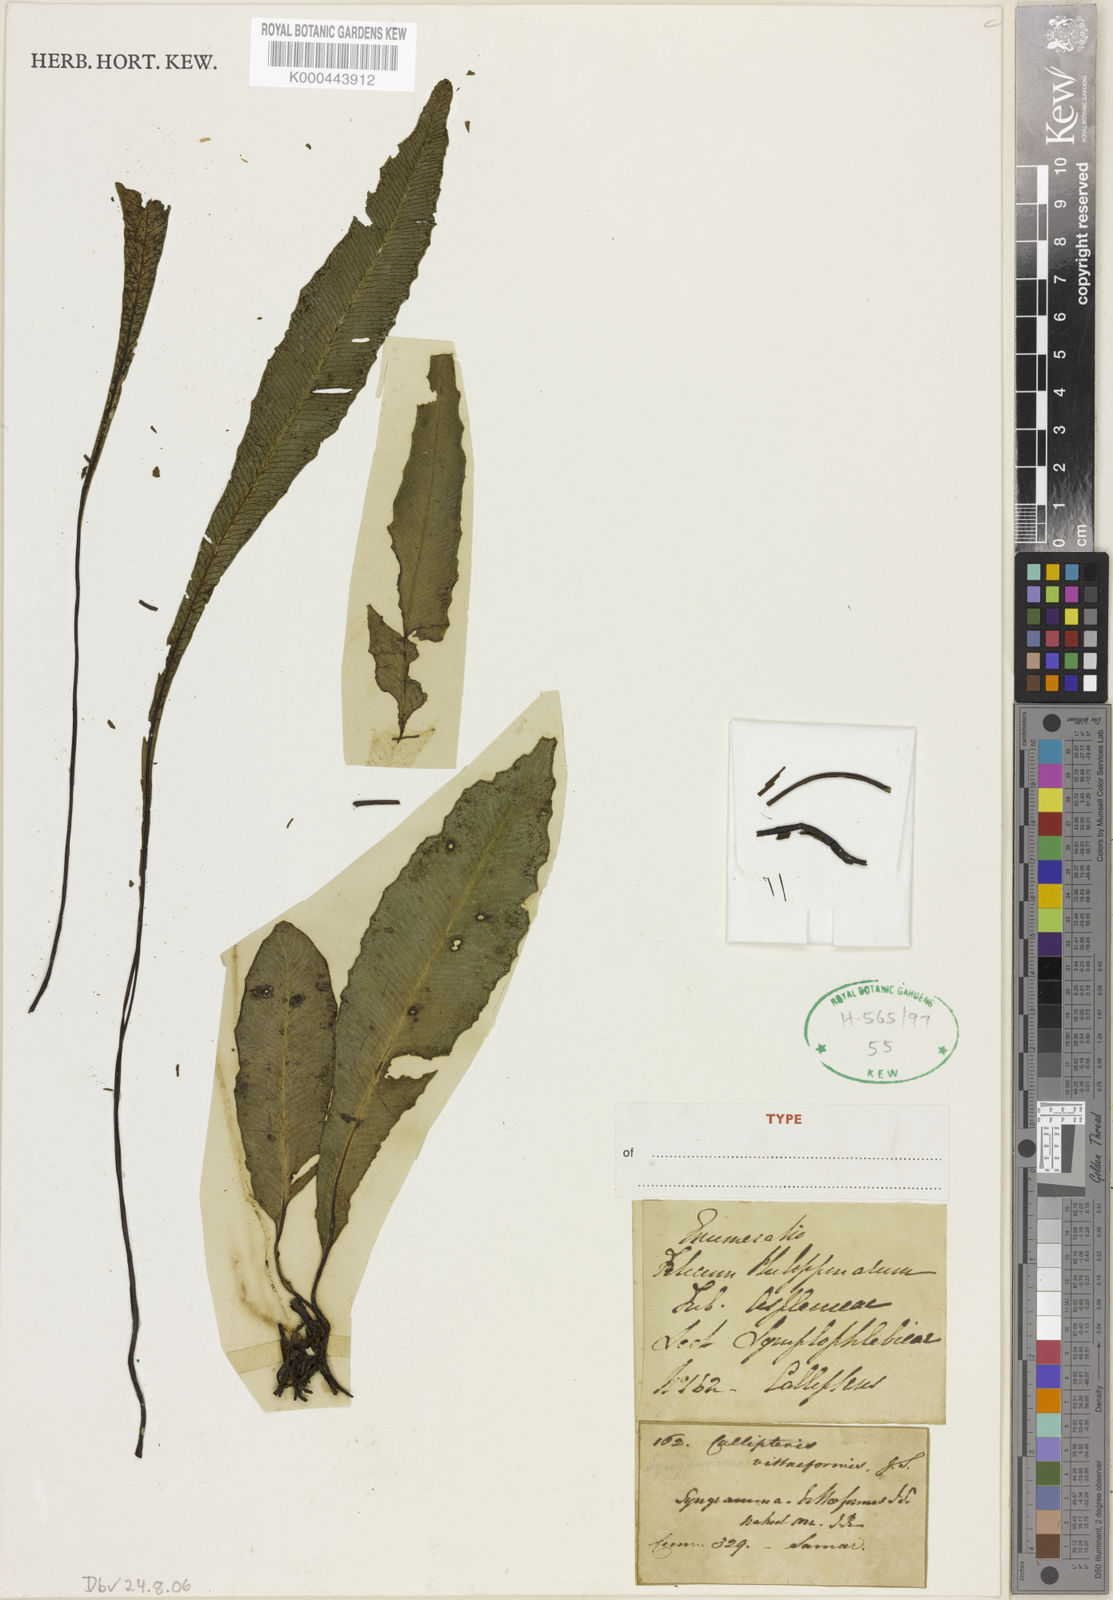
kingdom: Plantae
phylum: Tracheophyta
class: Polypodiopsida
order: Polypodiales
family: Pteridaceae
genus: Syngramma
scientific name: Syngramma vittiformis
